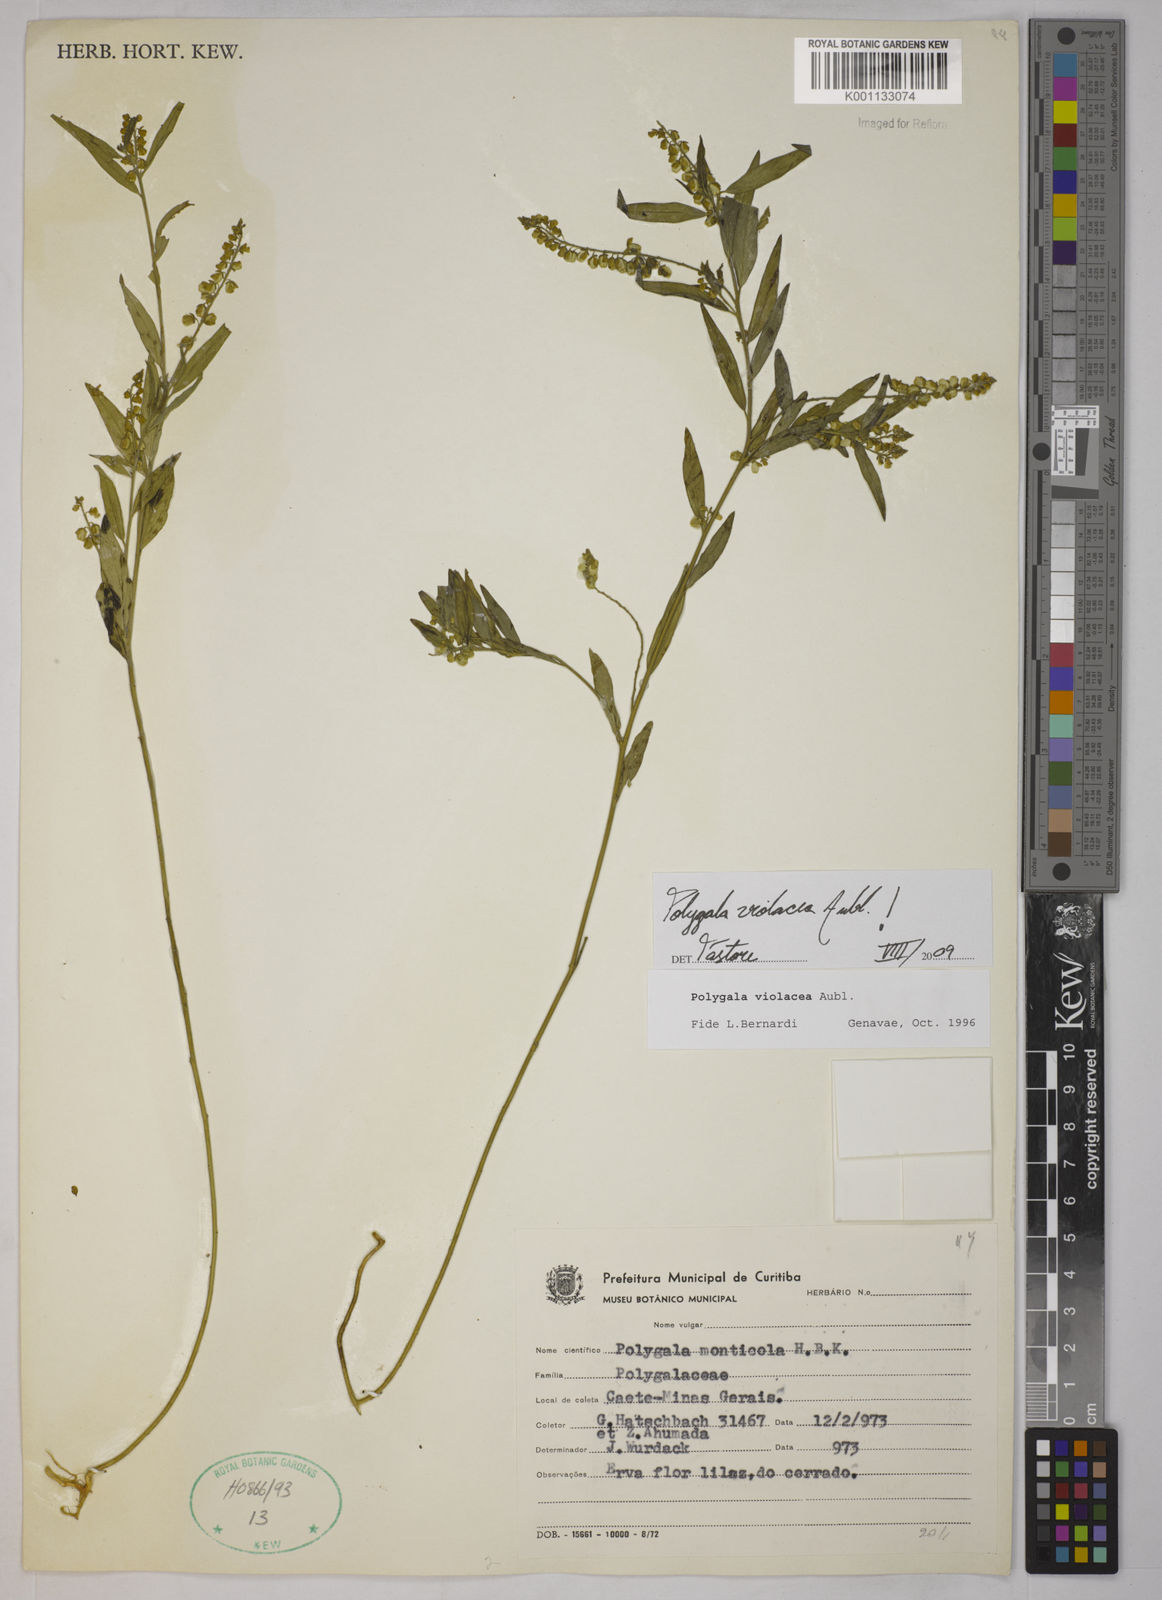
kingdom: Plantae
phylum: Tracheophyta
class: Magnoliopsida
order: Fabales
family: Polygalaceae
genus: Polygala
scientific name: Polygala
